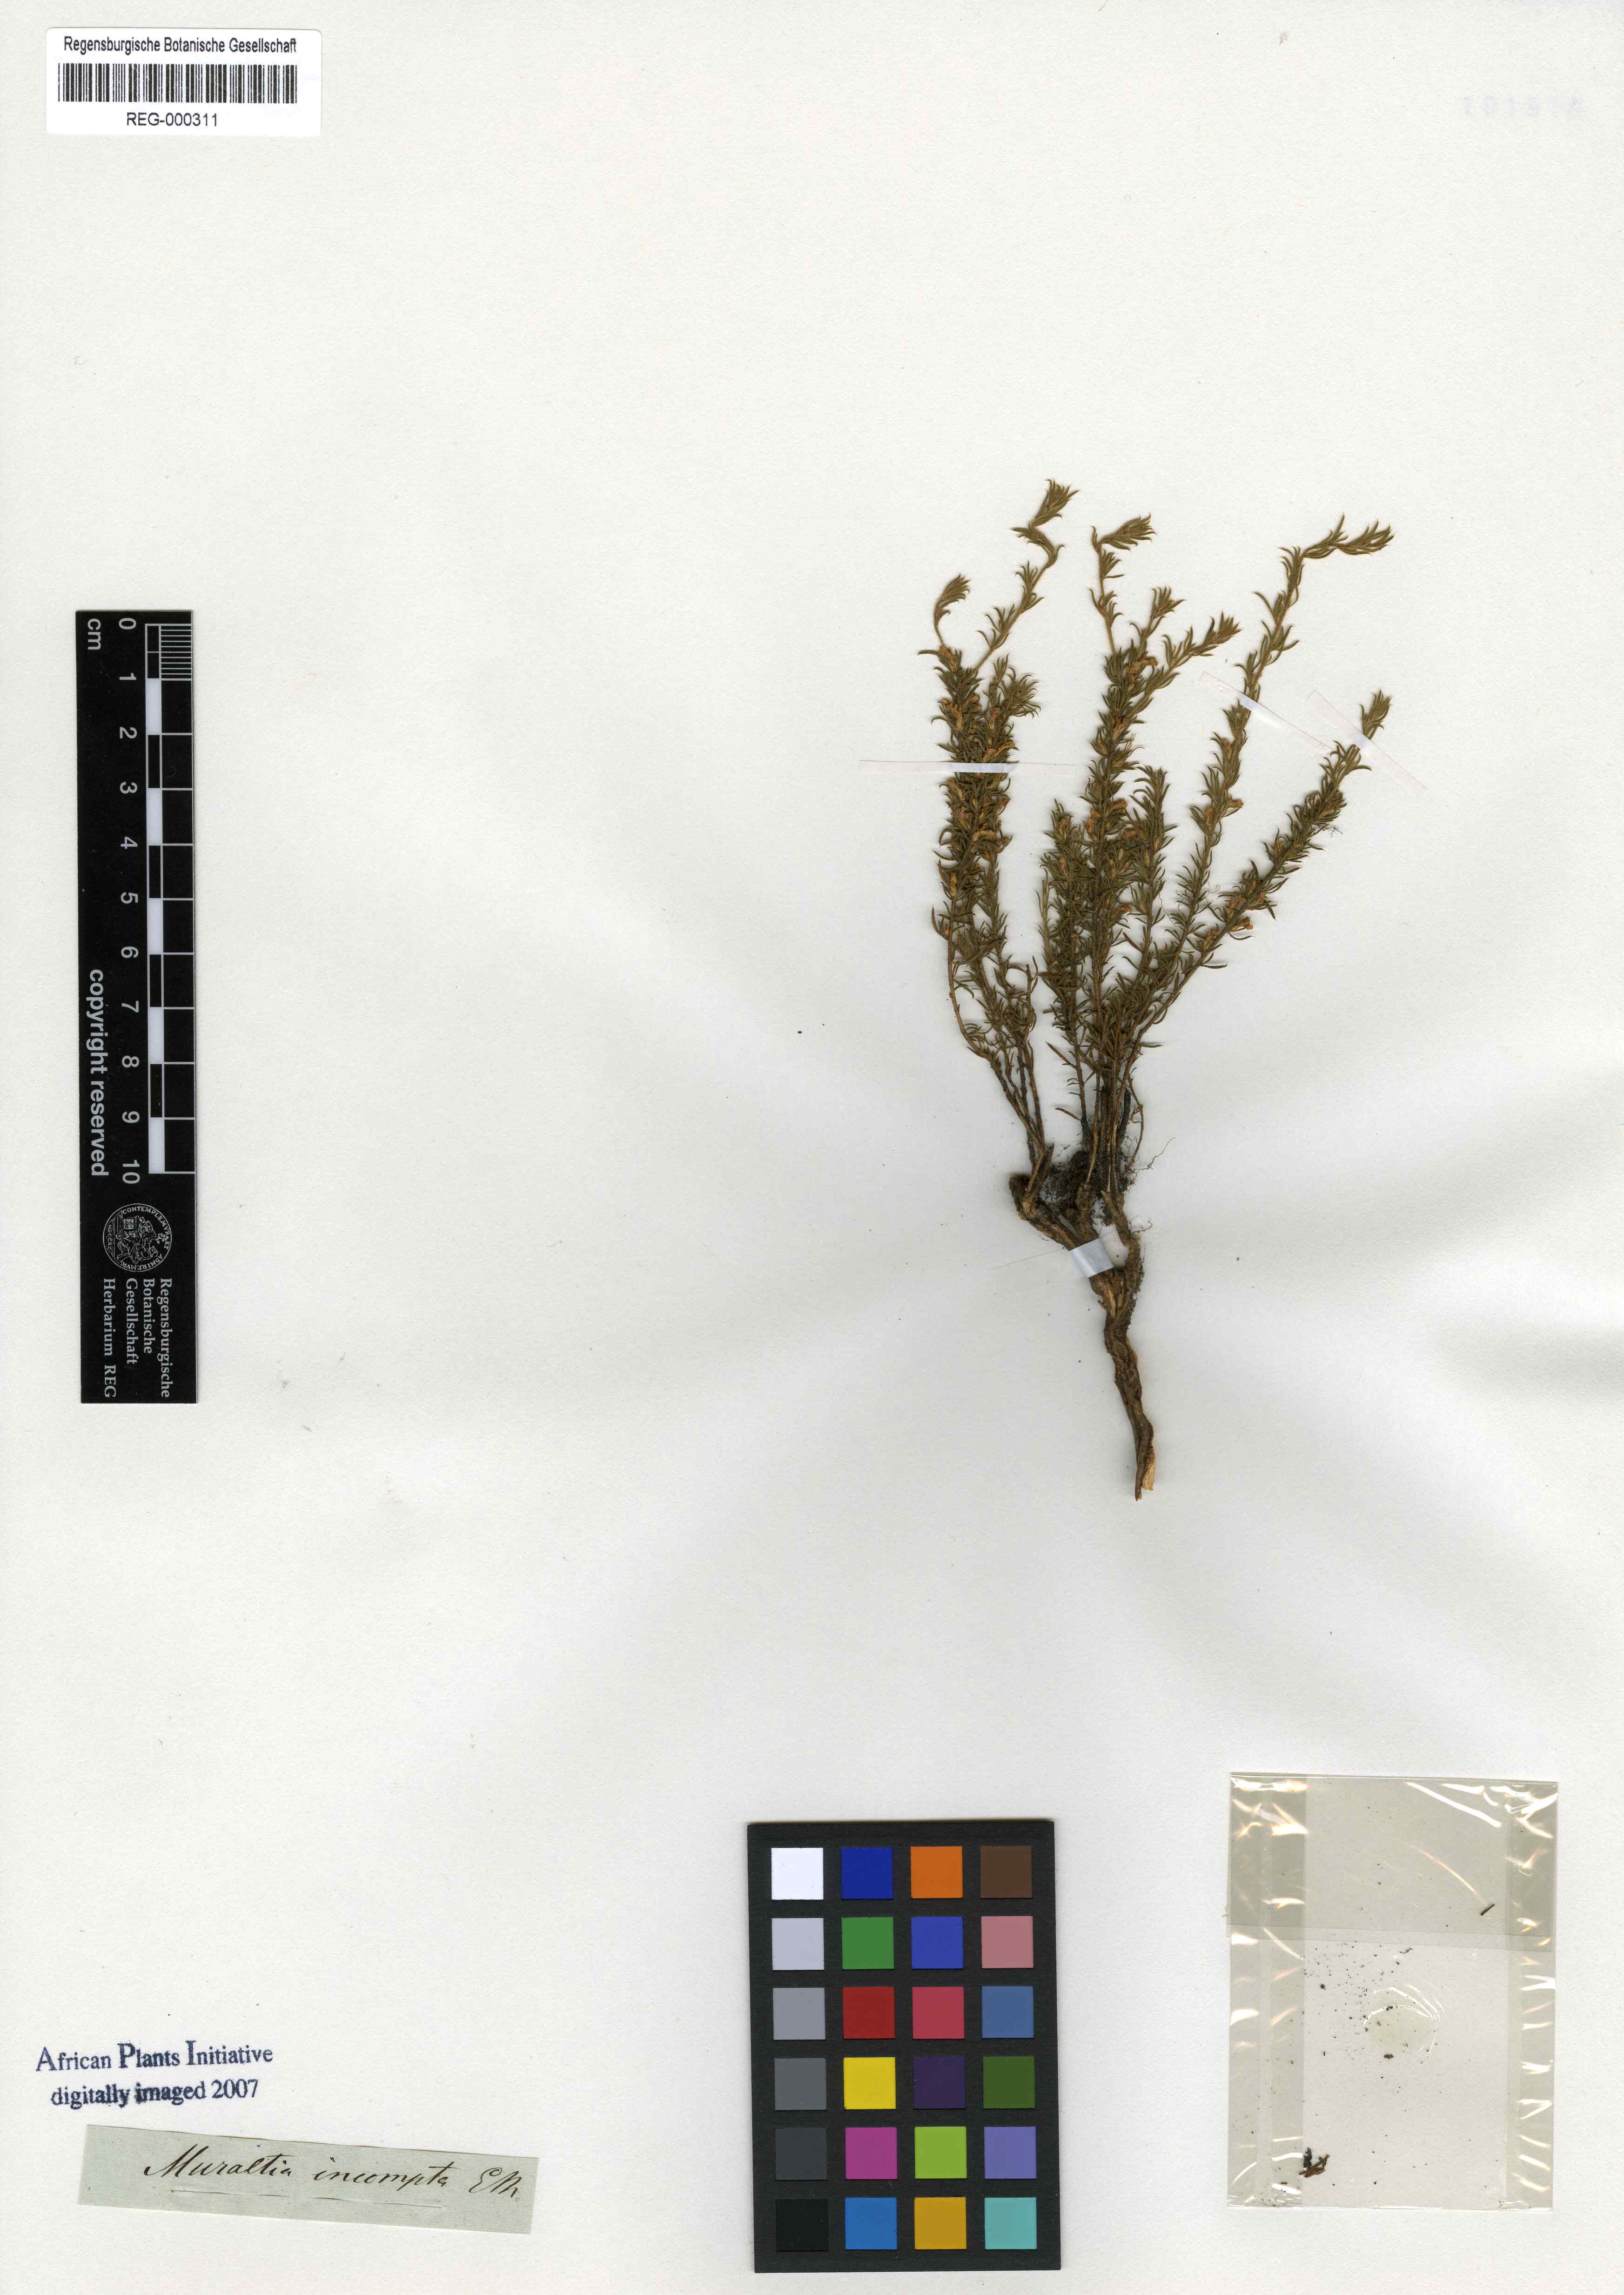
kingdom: Plantae
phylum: Tracheophyta
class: Magnoliopsida
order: Fabales
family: Polygalaceae
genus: Muraltia
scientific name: Muraltia divaricata
